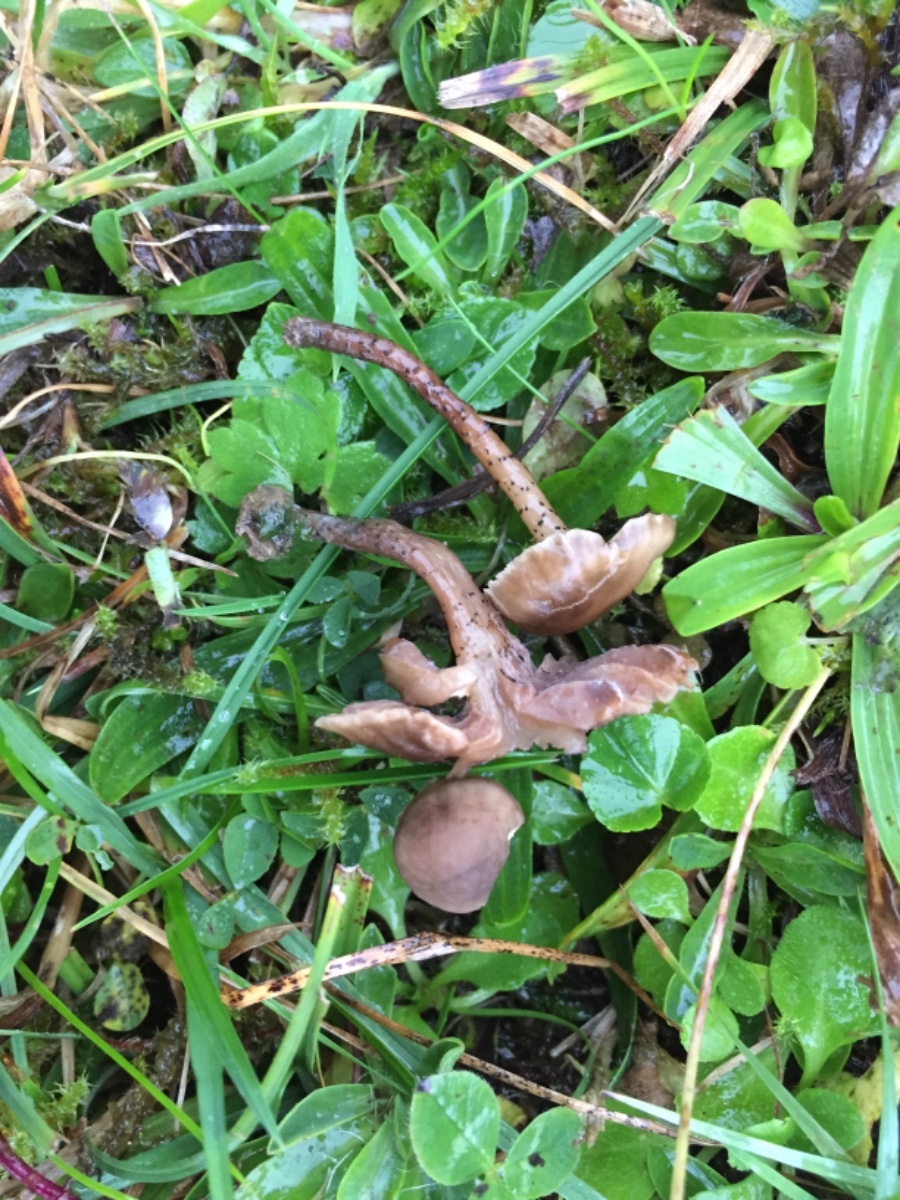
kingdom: Fungi
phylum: Basidiomycota
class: Agaricomycetes
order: Agaricales
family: Clavariaceae
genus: Hodophilus
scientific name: Hodophilus atropunctus
